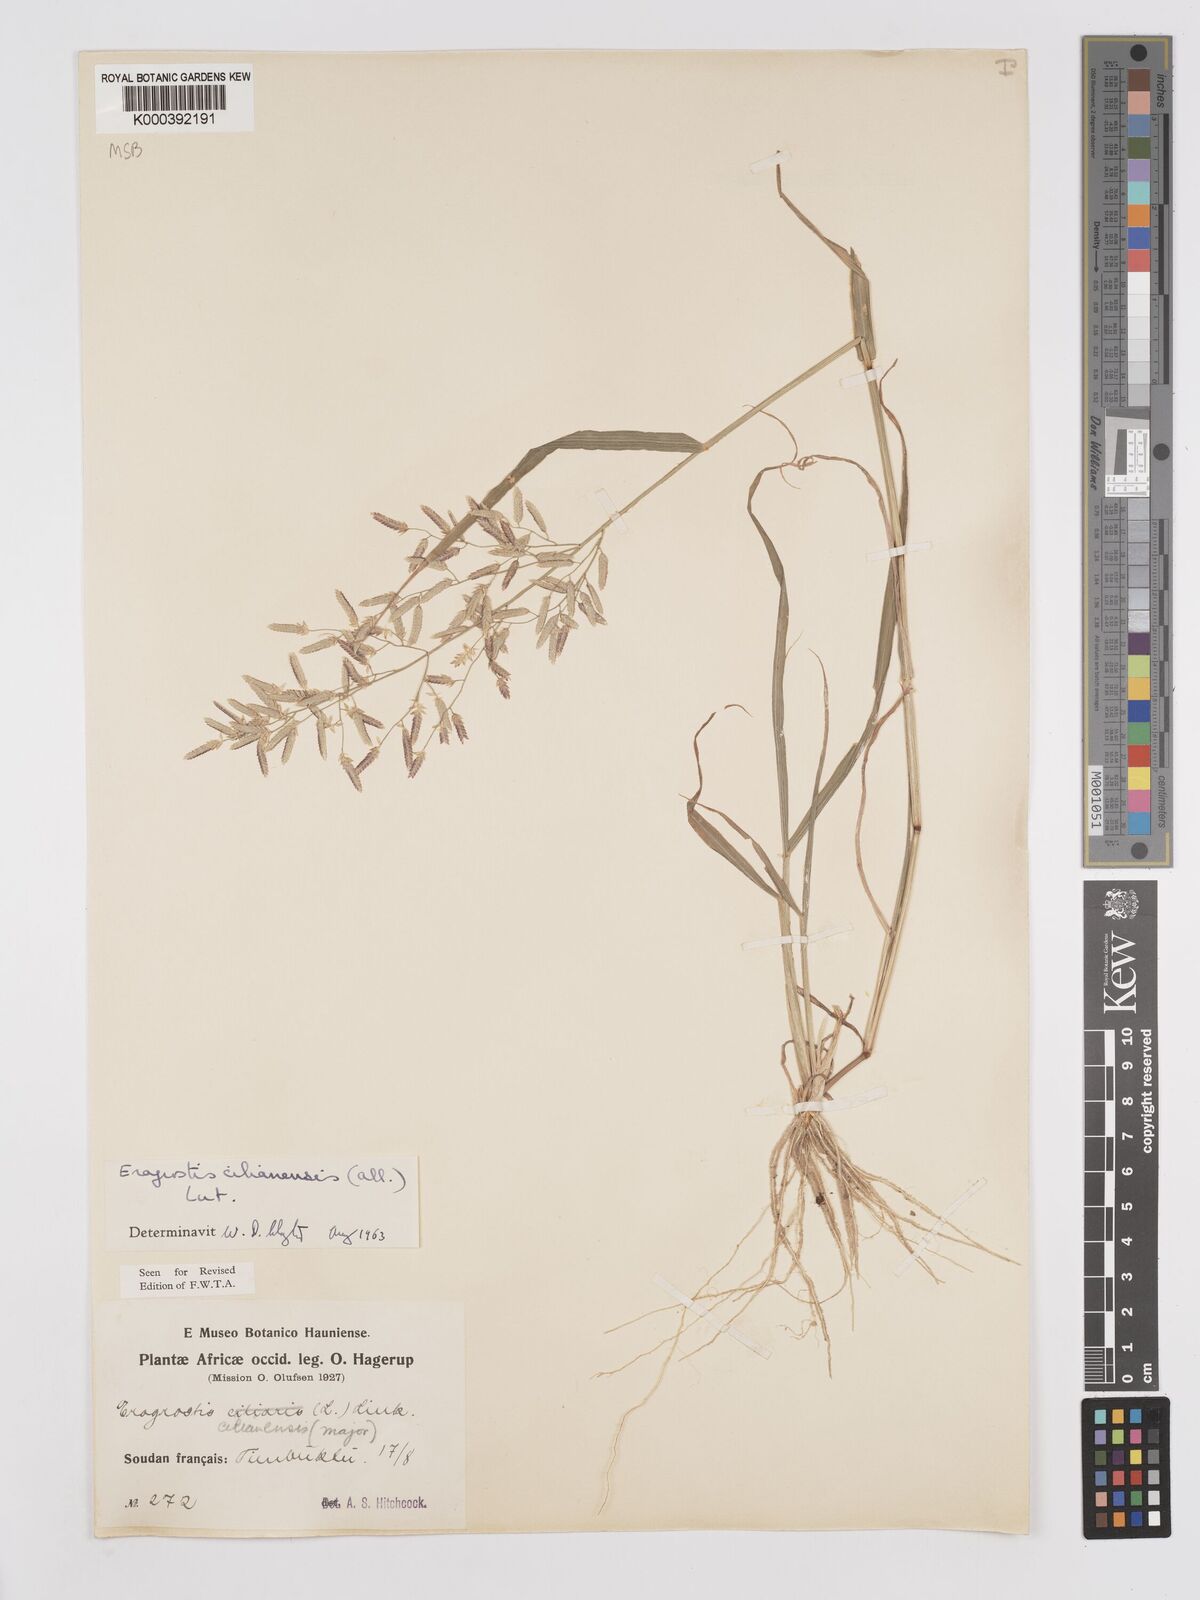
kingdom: Plantae
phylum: Tracheophyta
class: Liliopsida
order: Poales
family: Poaceae
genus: Eragrostis
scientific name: Eragrostis cilianensis
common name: Stinkgrass
